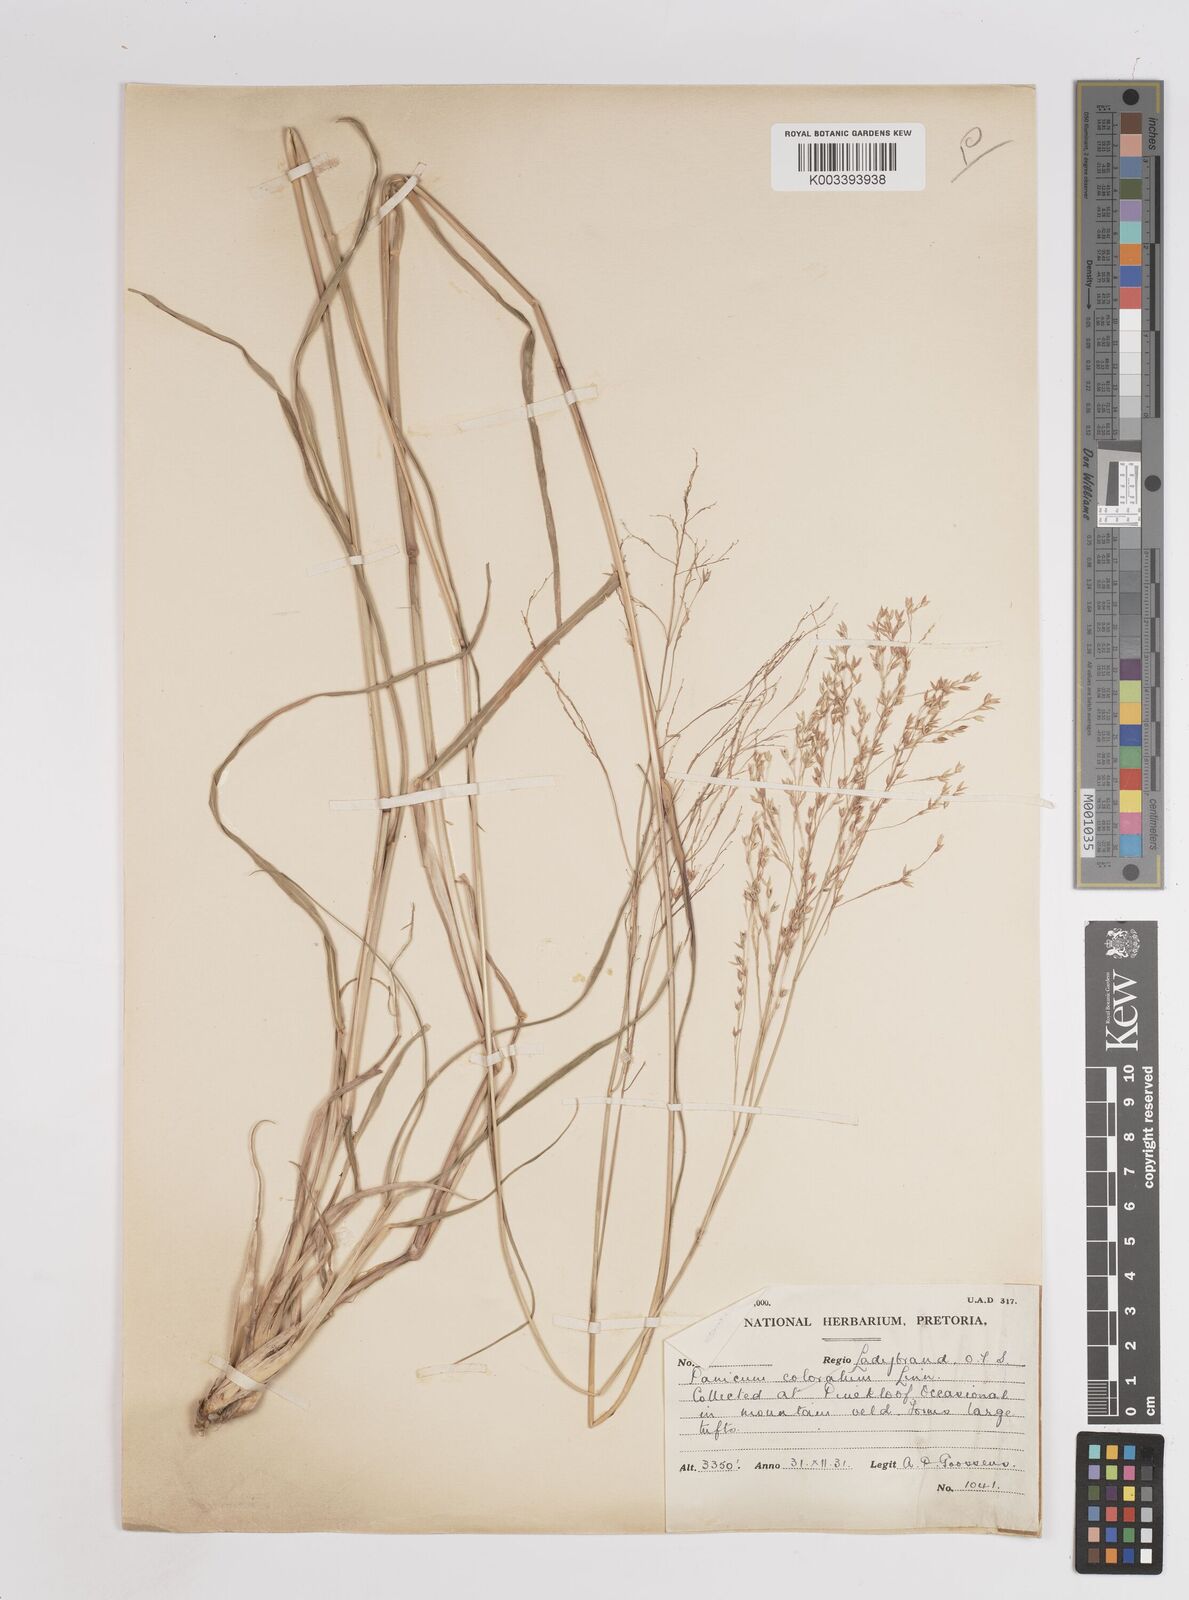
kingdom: Plantae
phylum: Tracheophyta
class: Liliopsida
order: Poales
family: Poaceae
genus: Panicum
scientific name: Panicum coloratum
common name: Kleingrass
